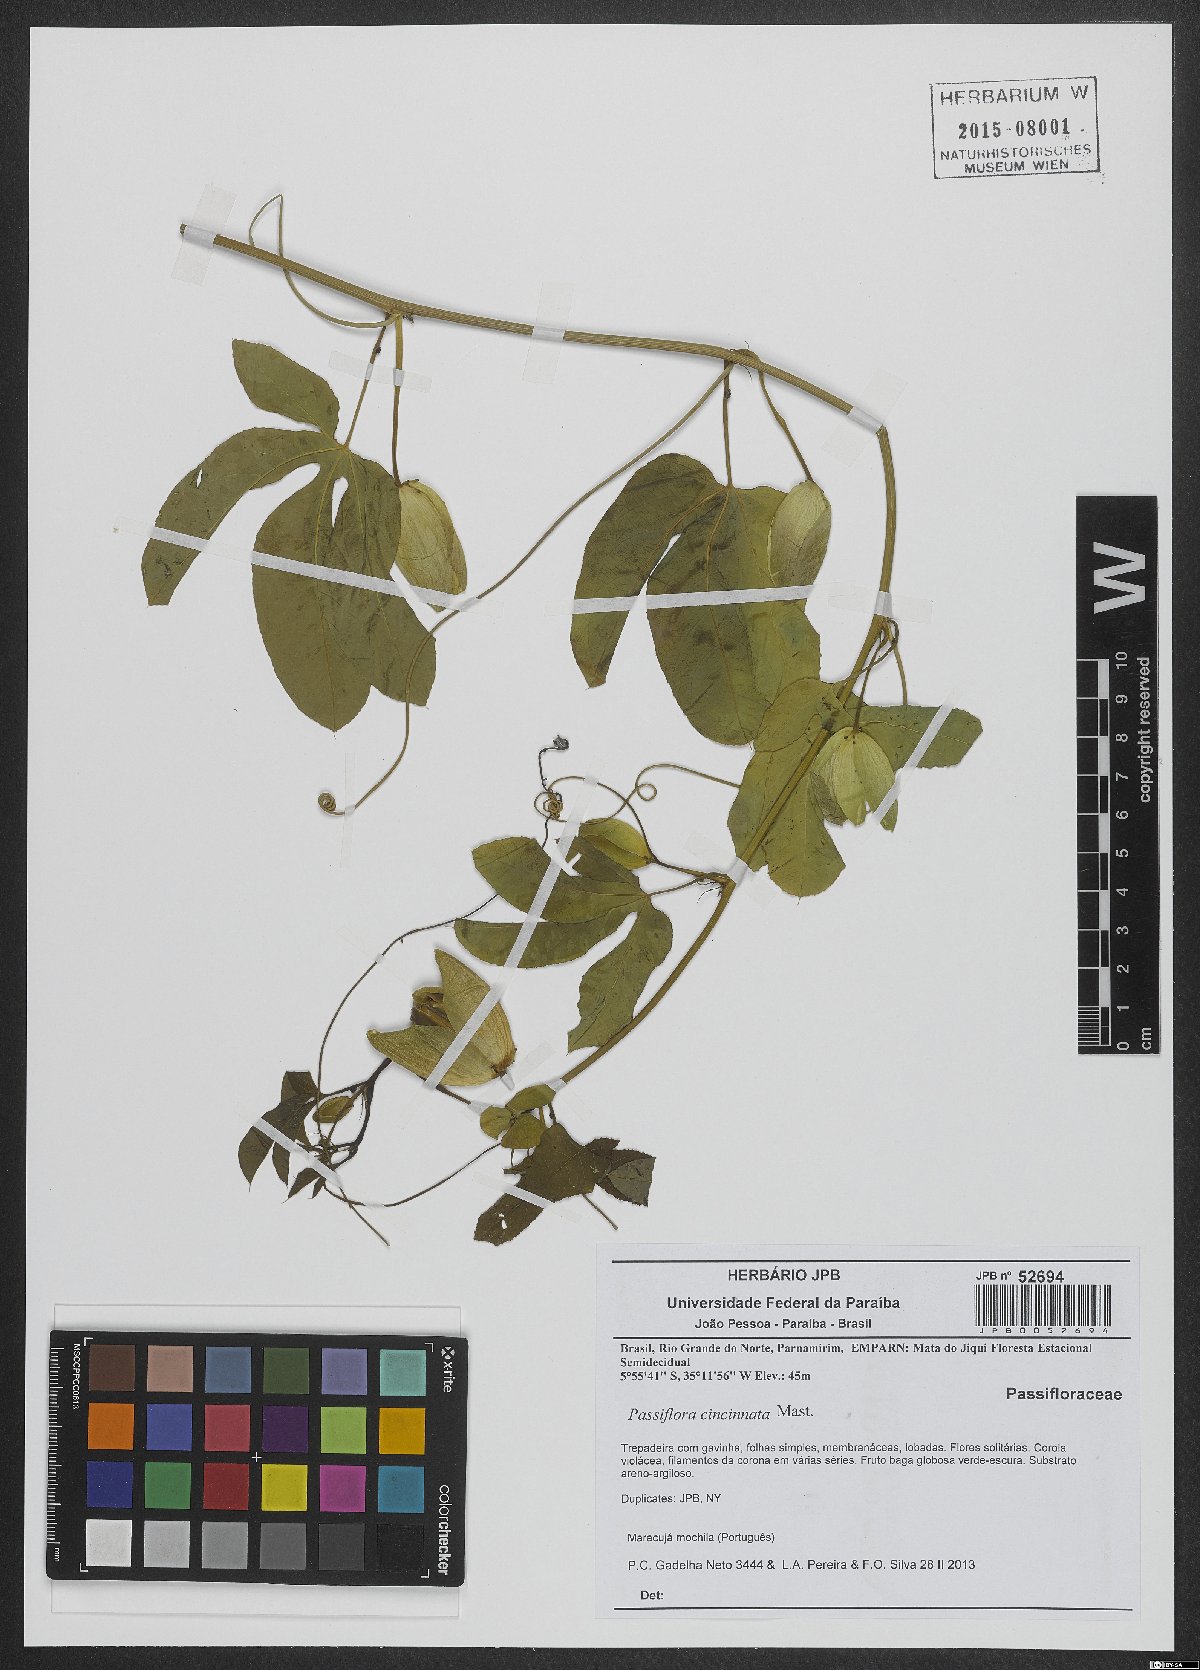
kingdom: Plantae
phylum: Tracheophyta
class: Magnoliopsida
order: Malpighiales
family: Passifloraceae
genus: Passiflora
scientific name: Passiflora cincinnata
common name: Crato passionvine
